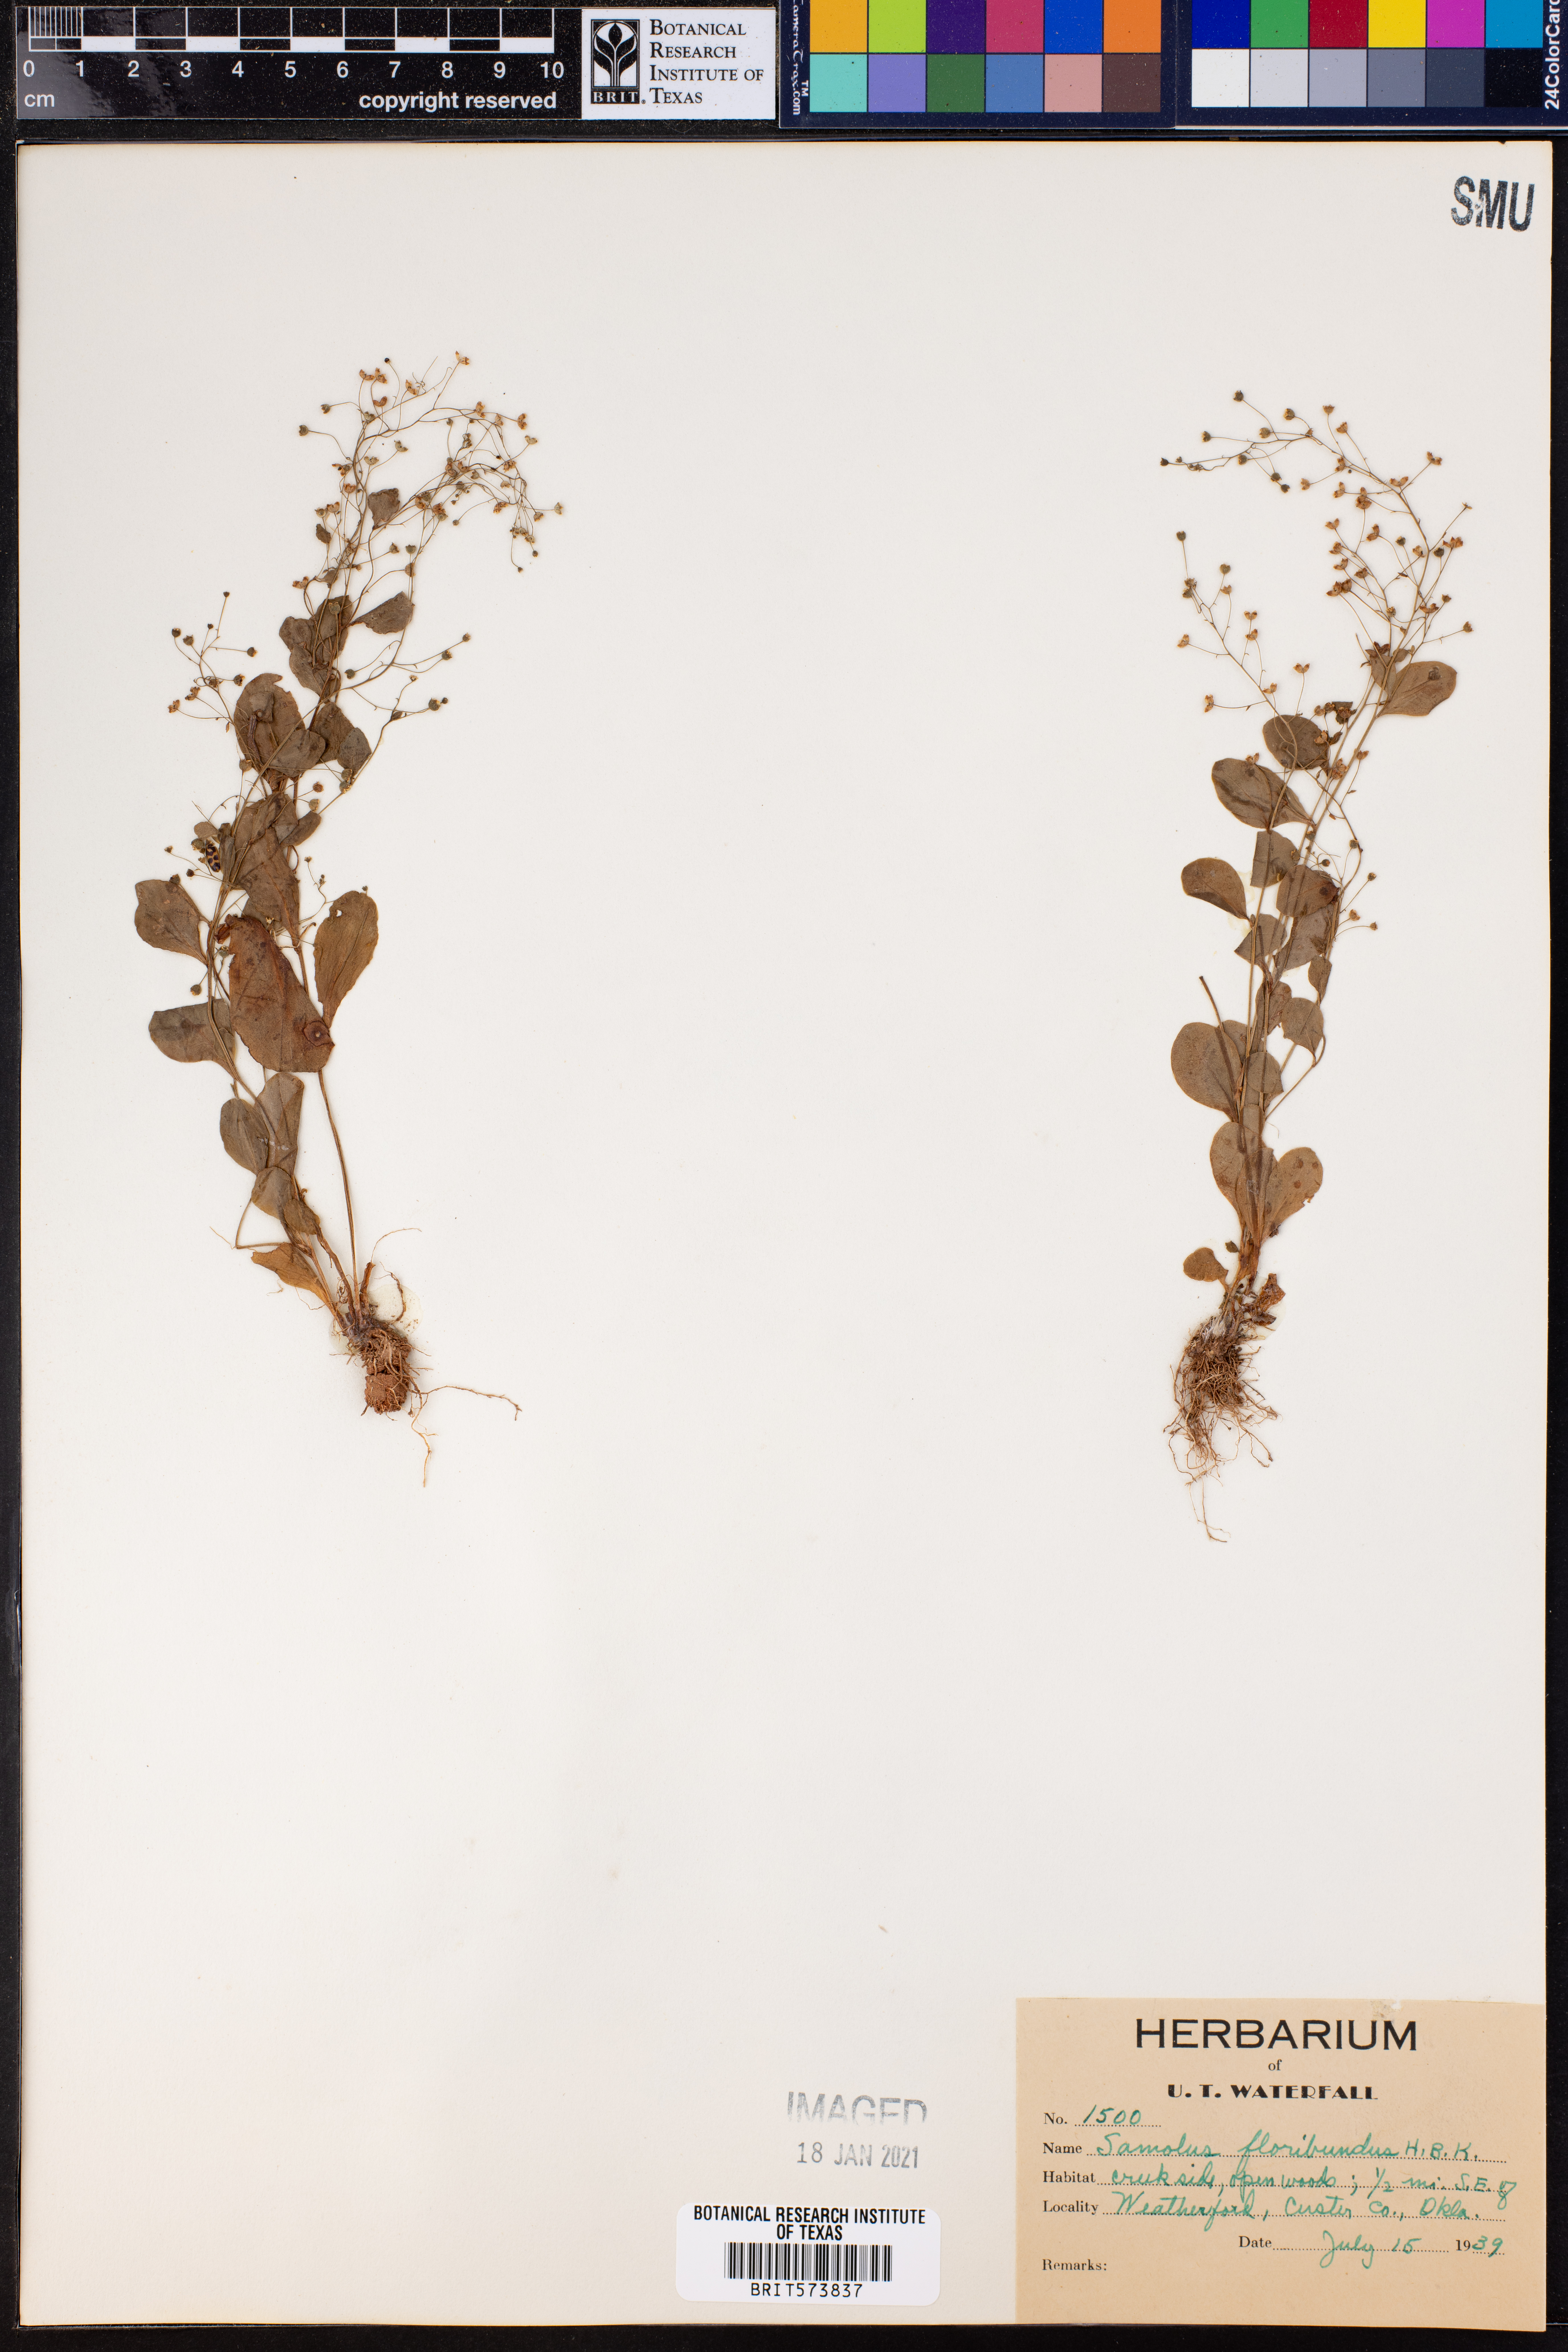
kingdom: Plantae
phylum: Tracheophyta
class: Magnoliopsida
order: Ericales
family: Primulaceae
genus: Samolus
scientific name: Samolus parviflorus
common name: False water pimpernel
